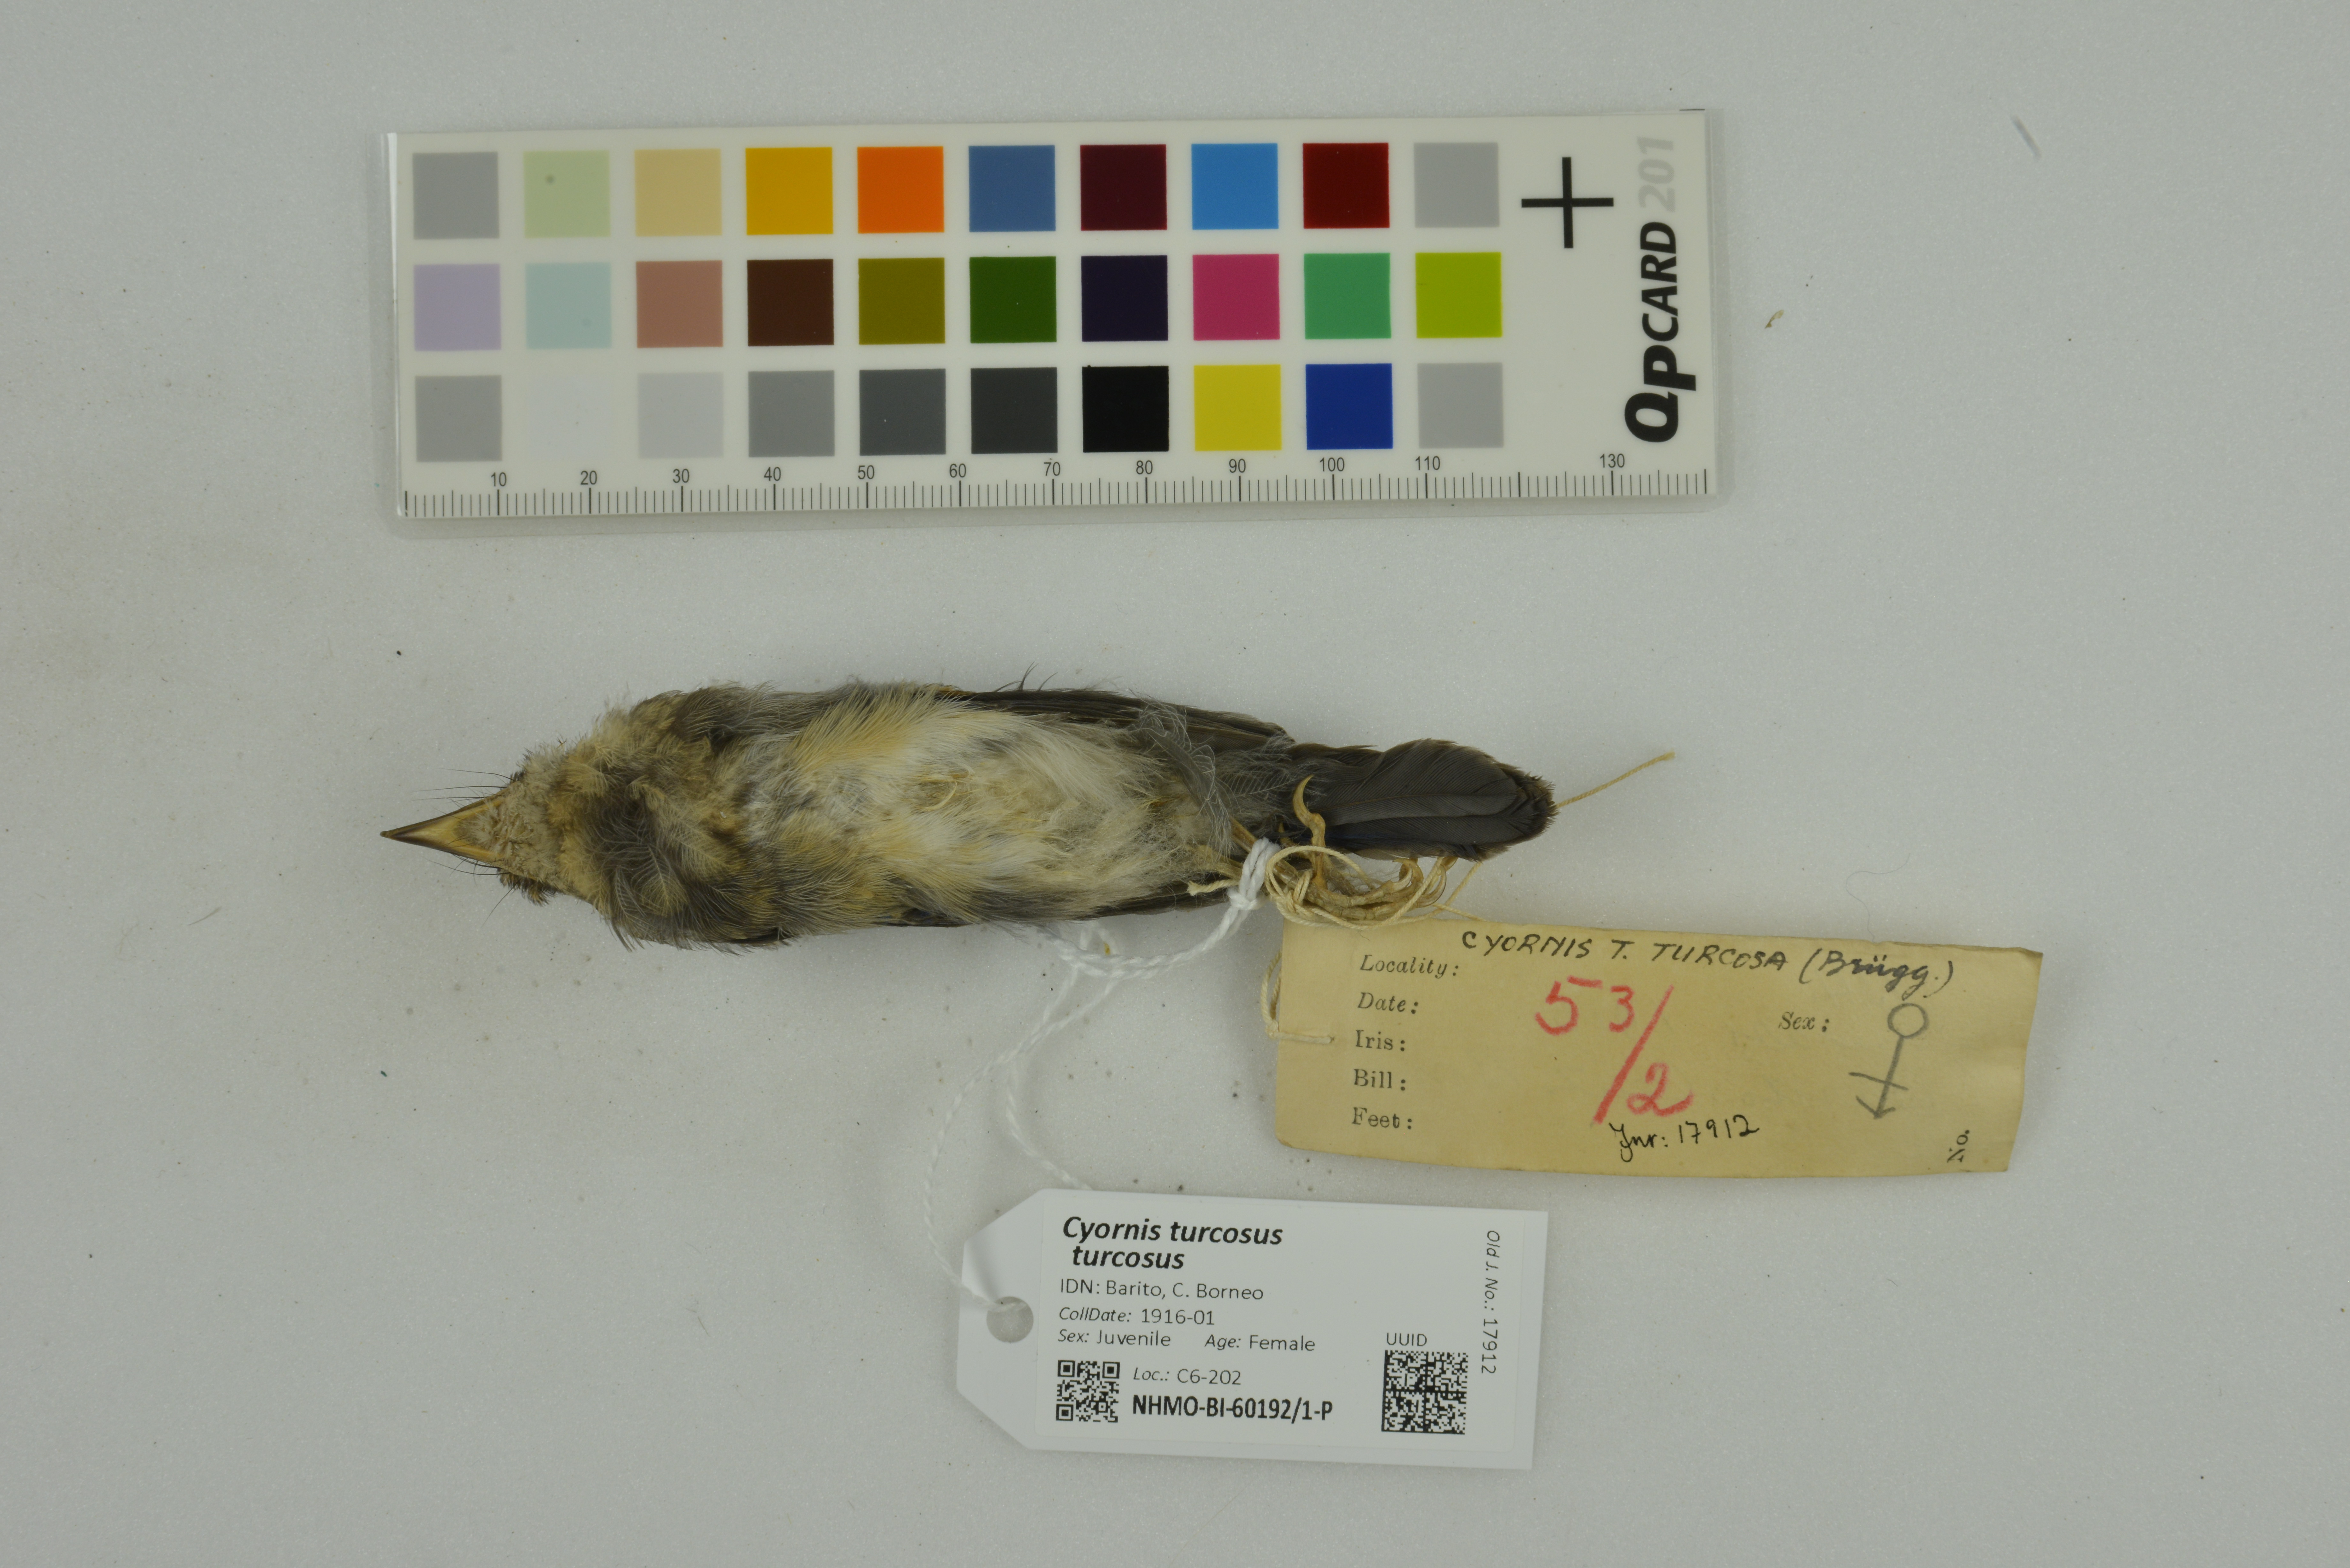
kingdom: Animalia
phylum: Chordata
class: Aves
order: Passeriformes
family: Muscicapidae
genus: Cyornis
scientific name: Cyornis turcosus
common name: Malaysian blue flycatcher
